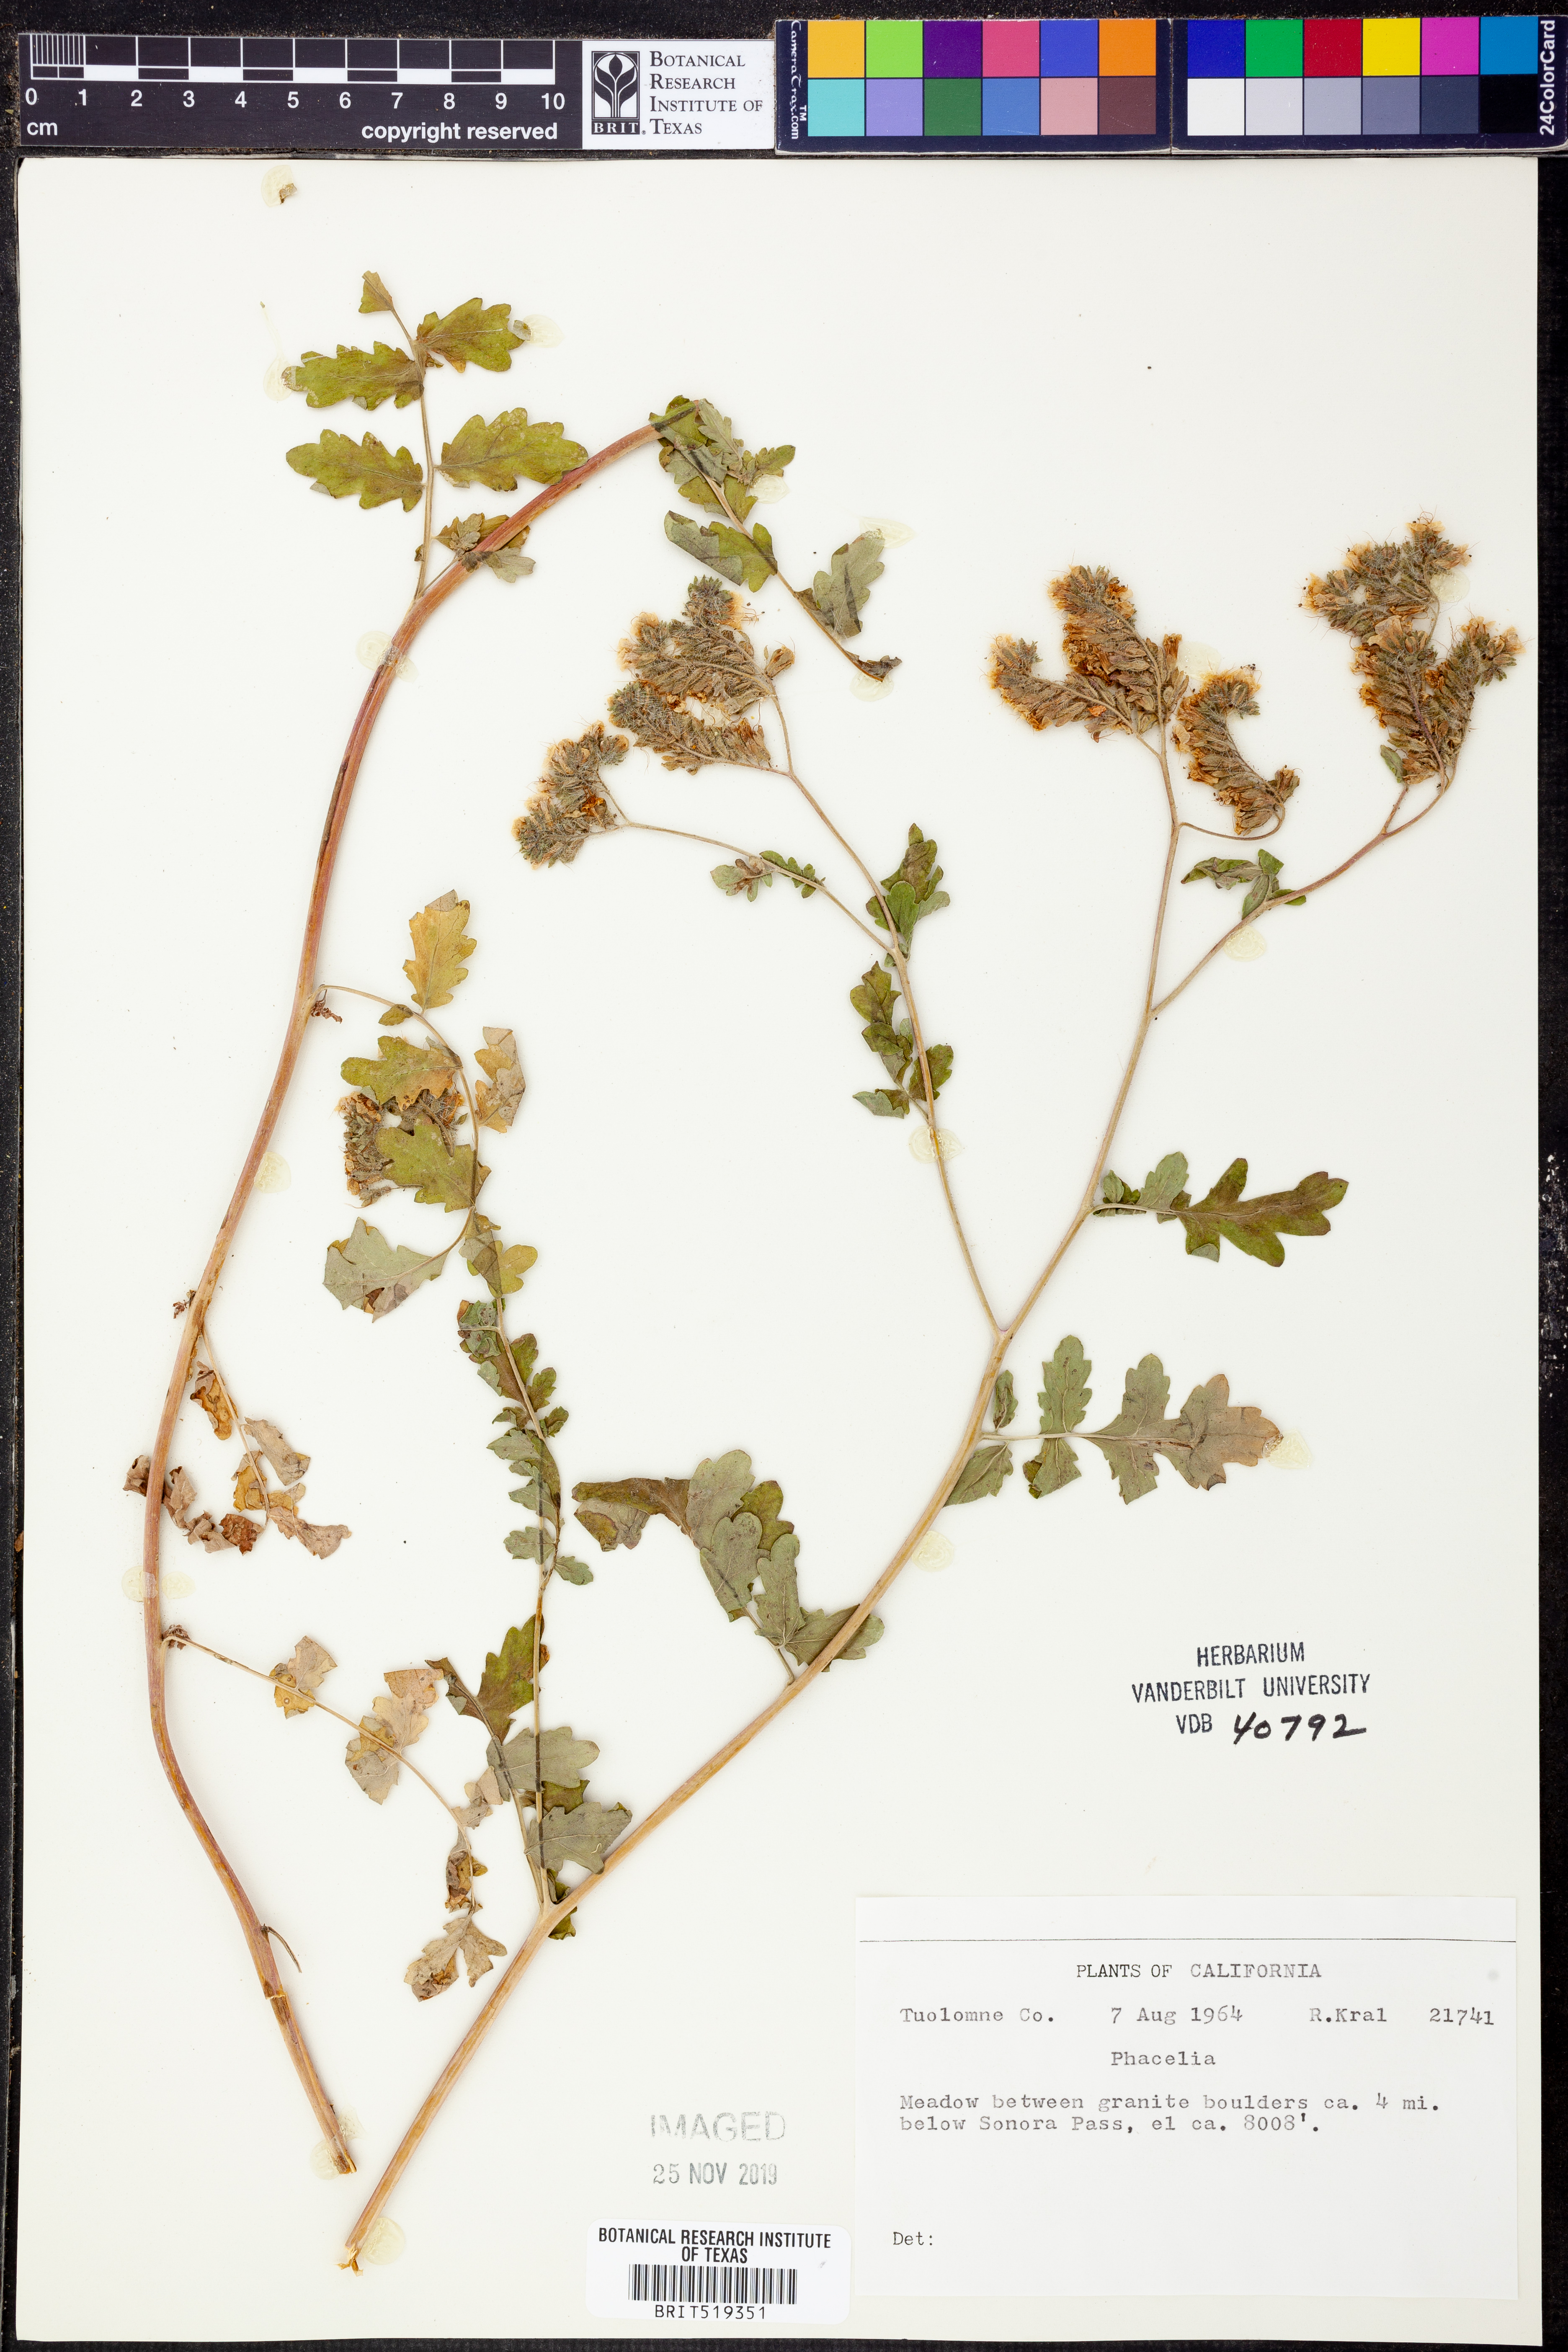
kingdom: Plantae
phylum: Tracheophyta
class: Magnoliopsida
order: Boraginales
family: Hydrophyllaceae
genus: Phacelia
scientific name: Phacelia
